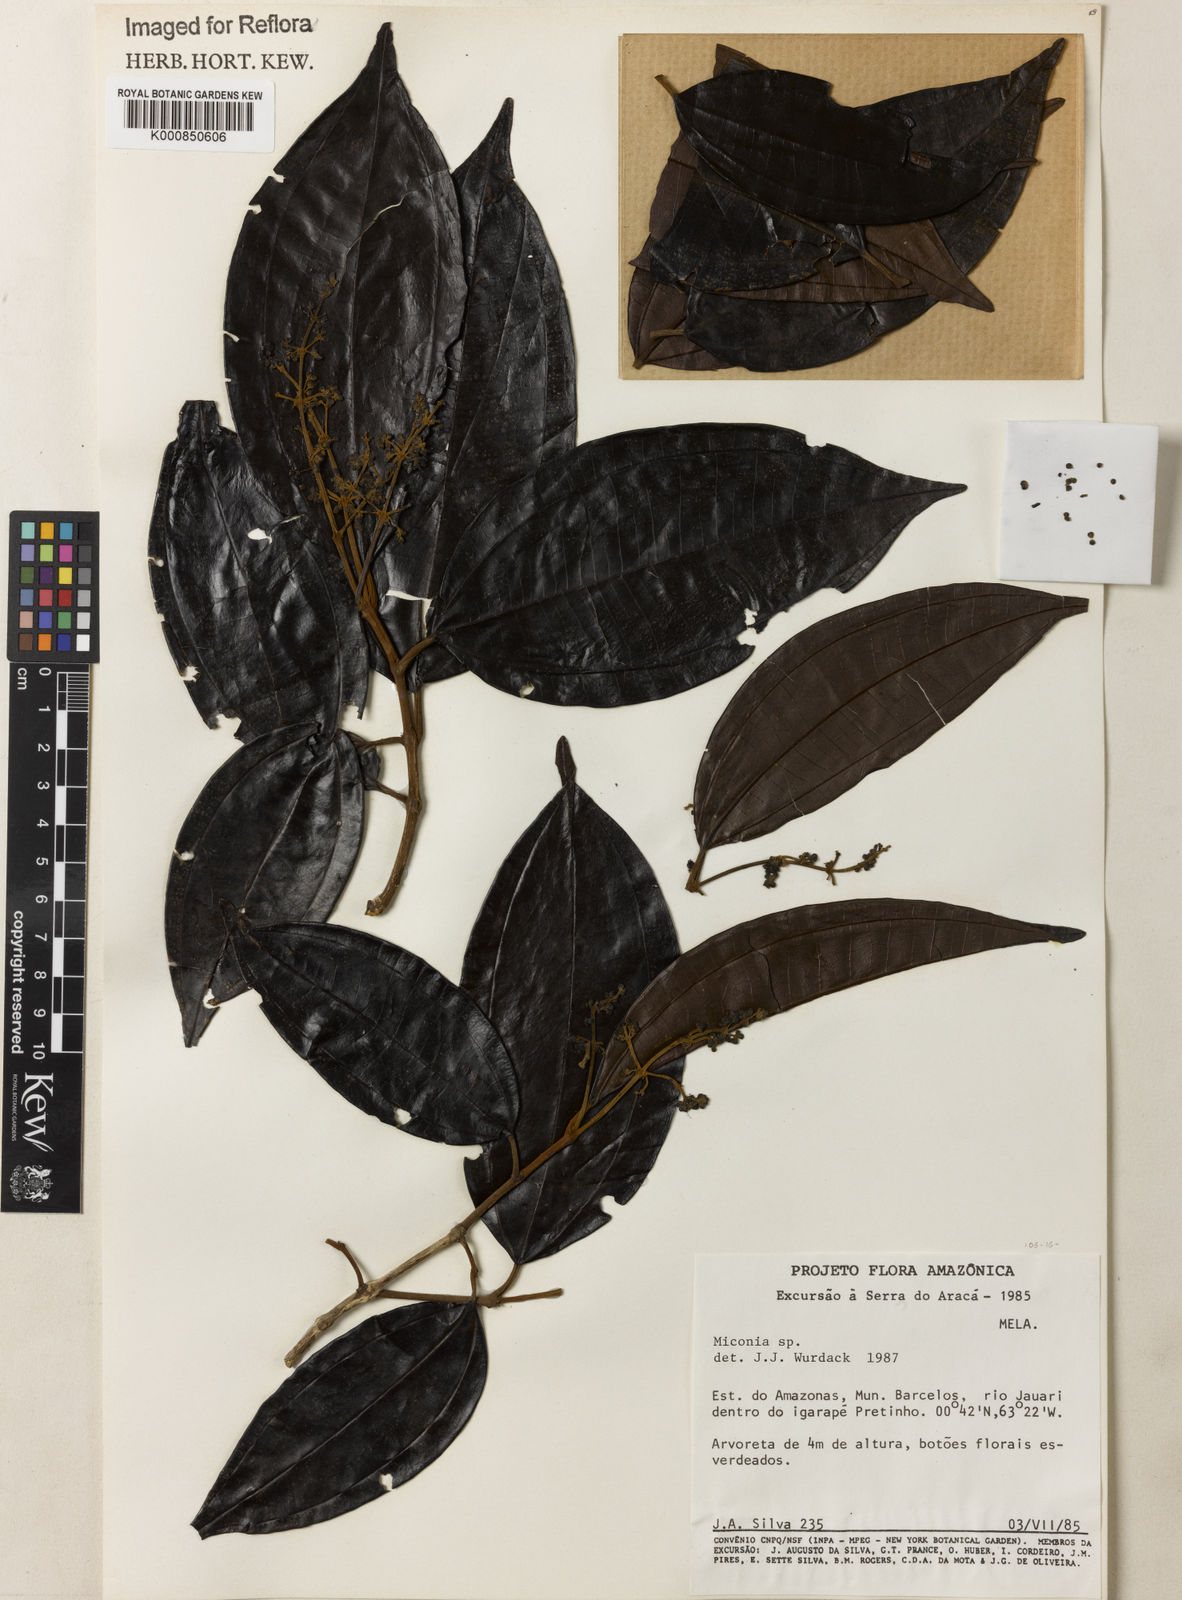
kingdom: Plantae
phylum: Tracheophyta
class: Magnoliopsida
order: Myrtales
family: Melastomataceae
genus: Miconia
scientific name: Miconia
